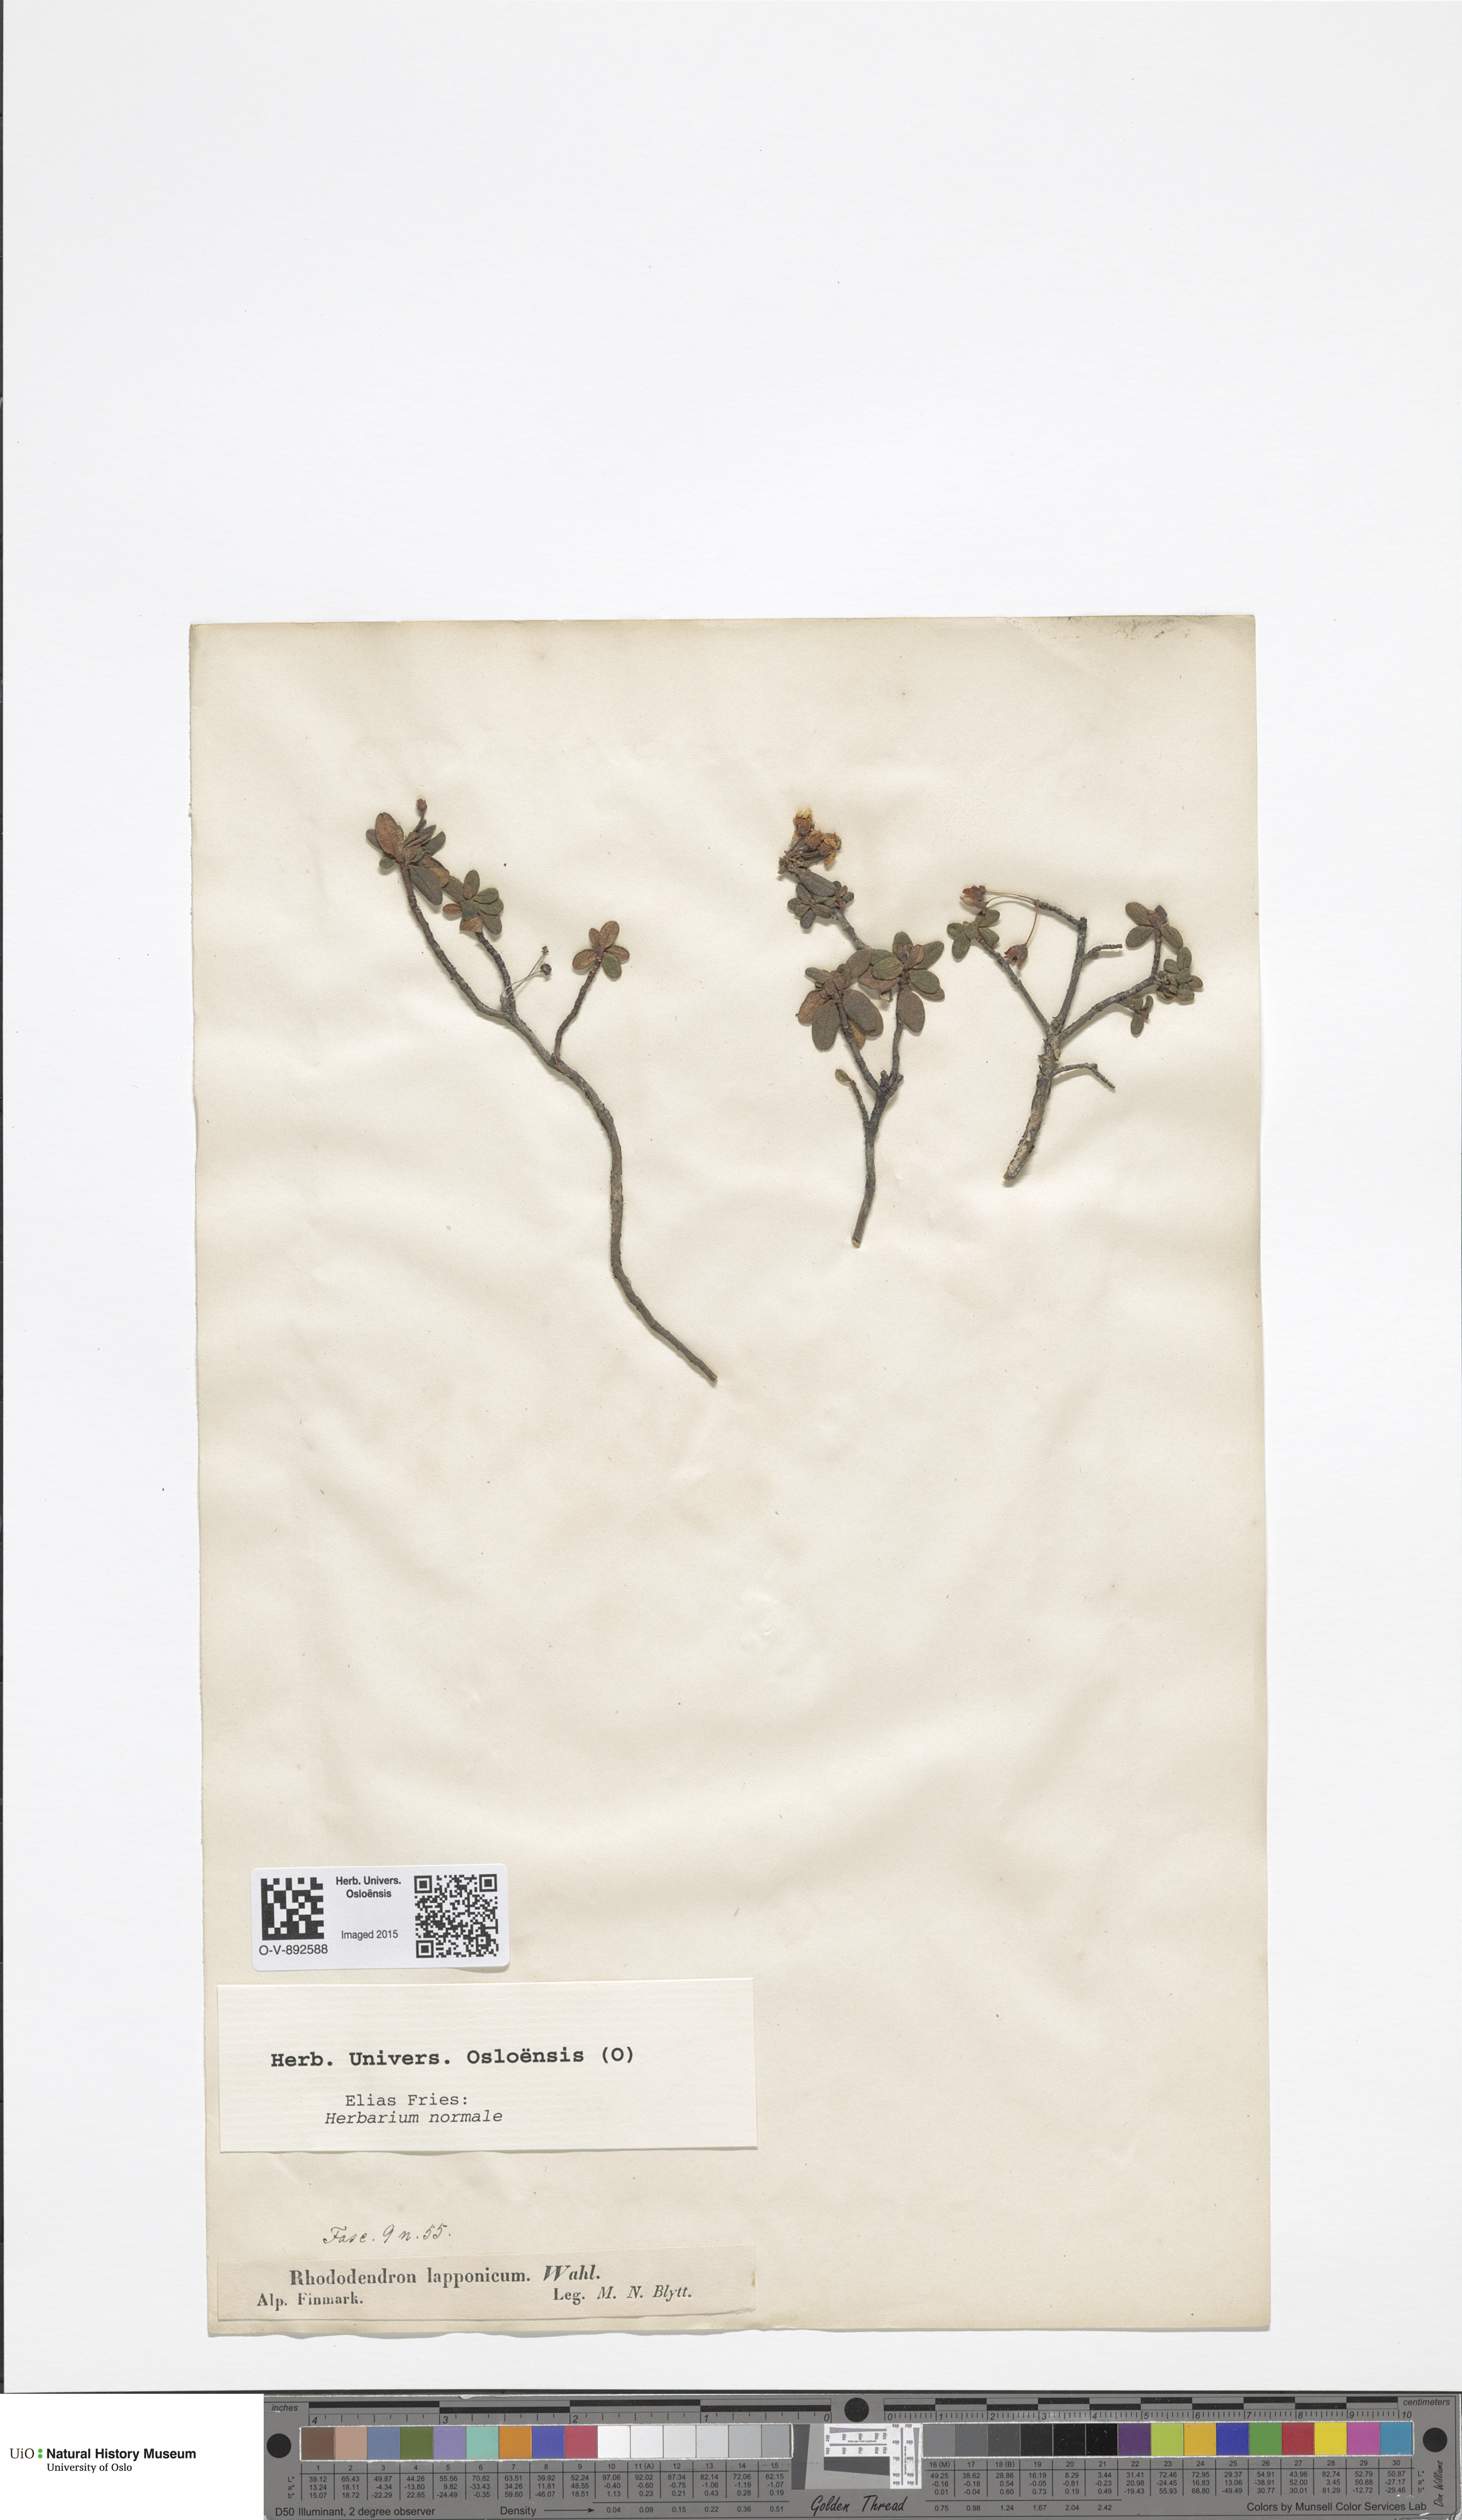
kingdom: Plantae
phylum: Tracheophyta
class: Magnoliopsida
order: Ericales
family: Ericaceae
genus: Rhododendron
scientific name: Rhododendron lapponicum
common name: Lapland rhododendron
